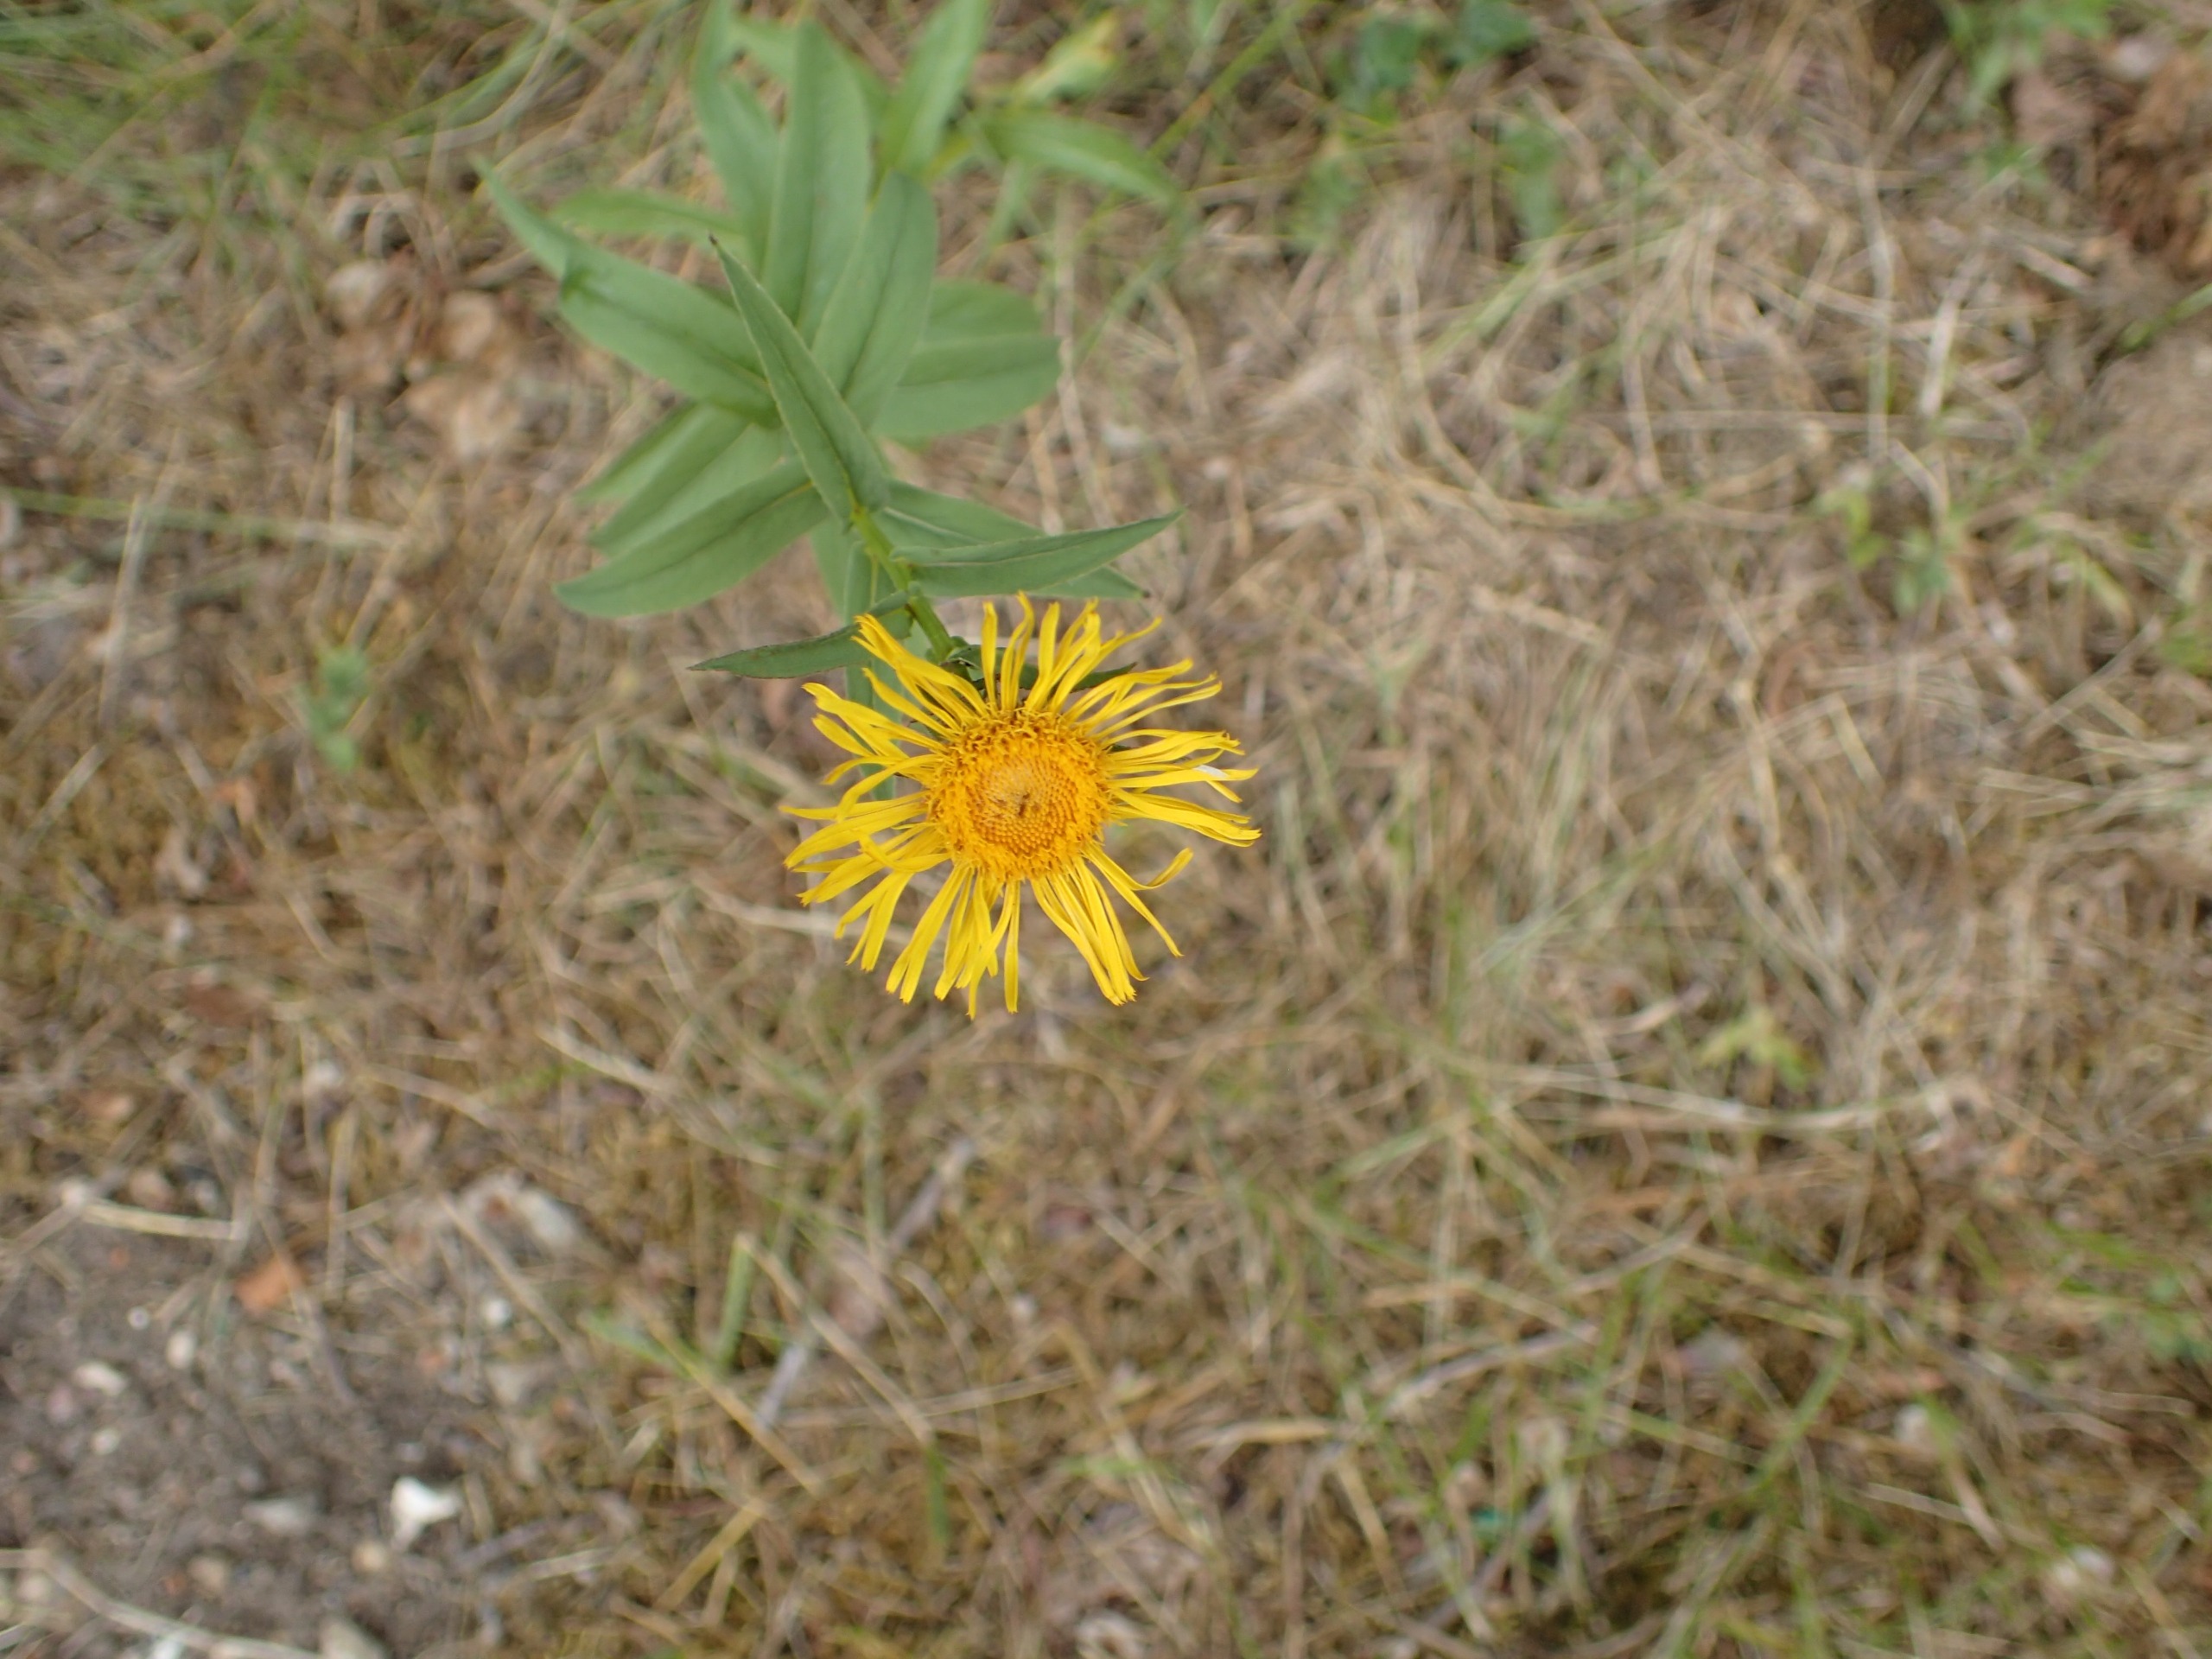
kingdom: Plantae
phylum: Tracheophyta
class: Magnoliopsida
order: Asterales
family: Asteraceae
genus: Pentanema
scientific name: Pentanema salicinum
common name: Pile-alant
